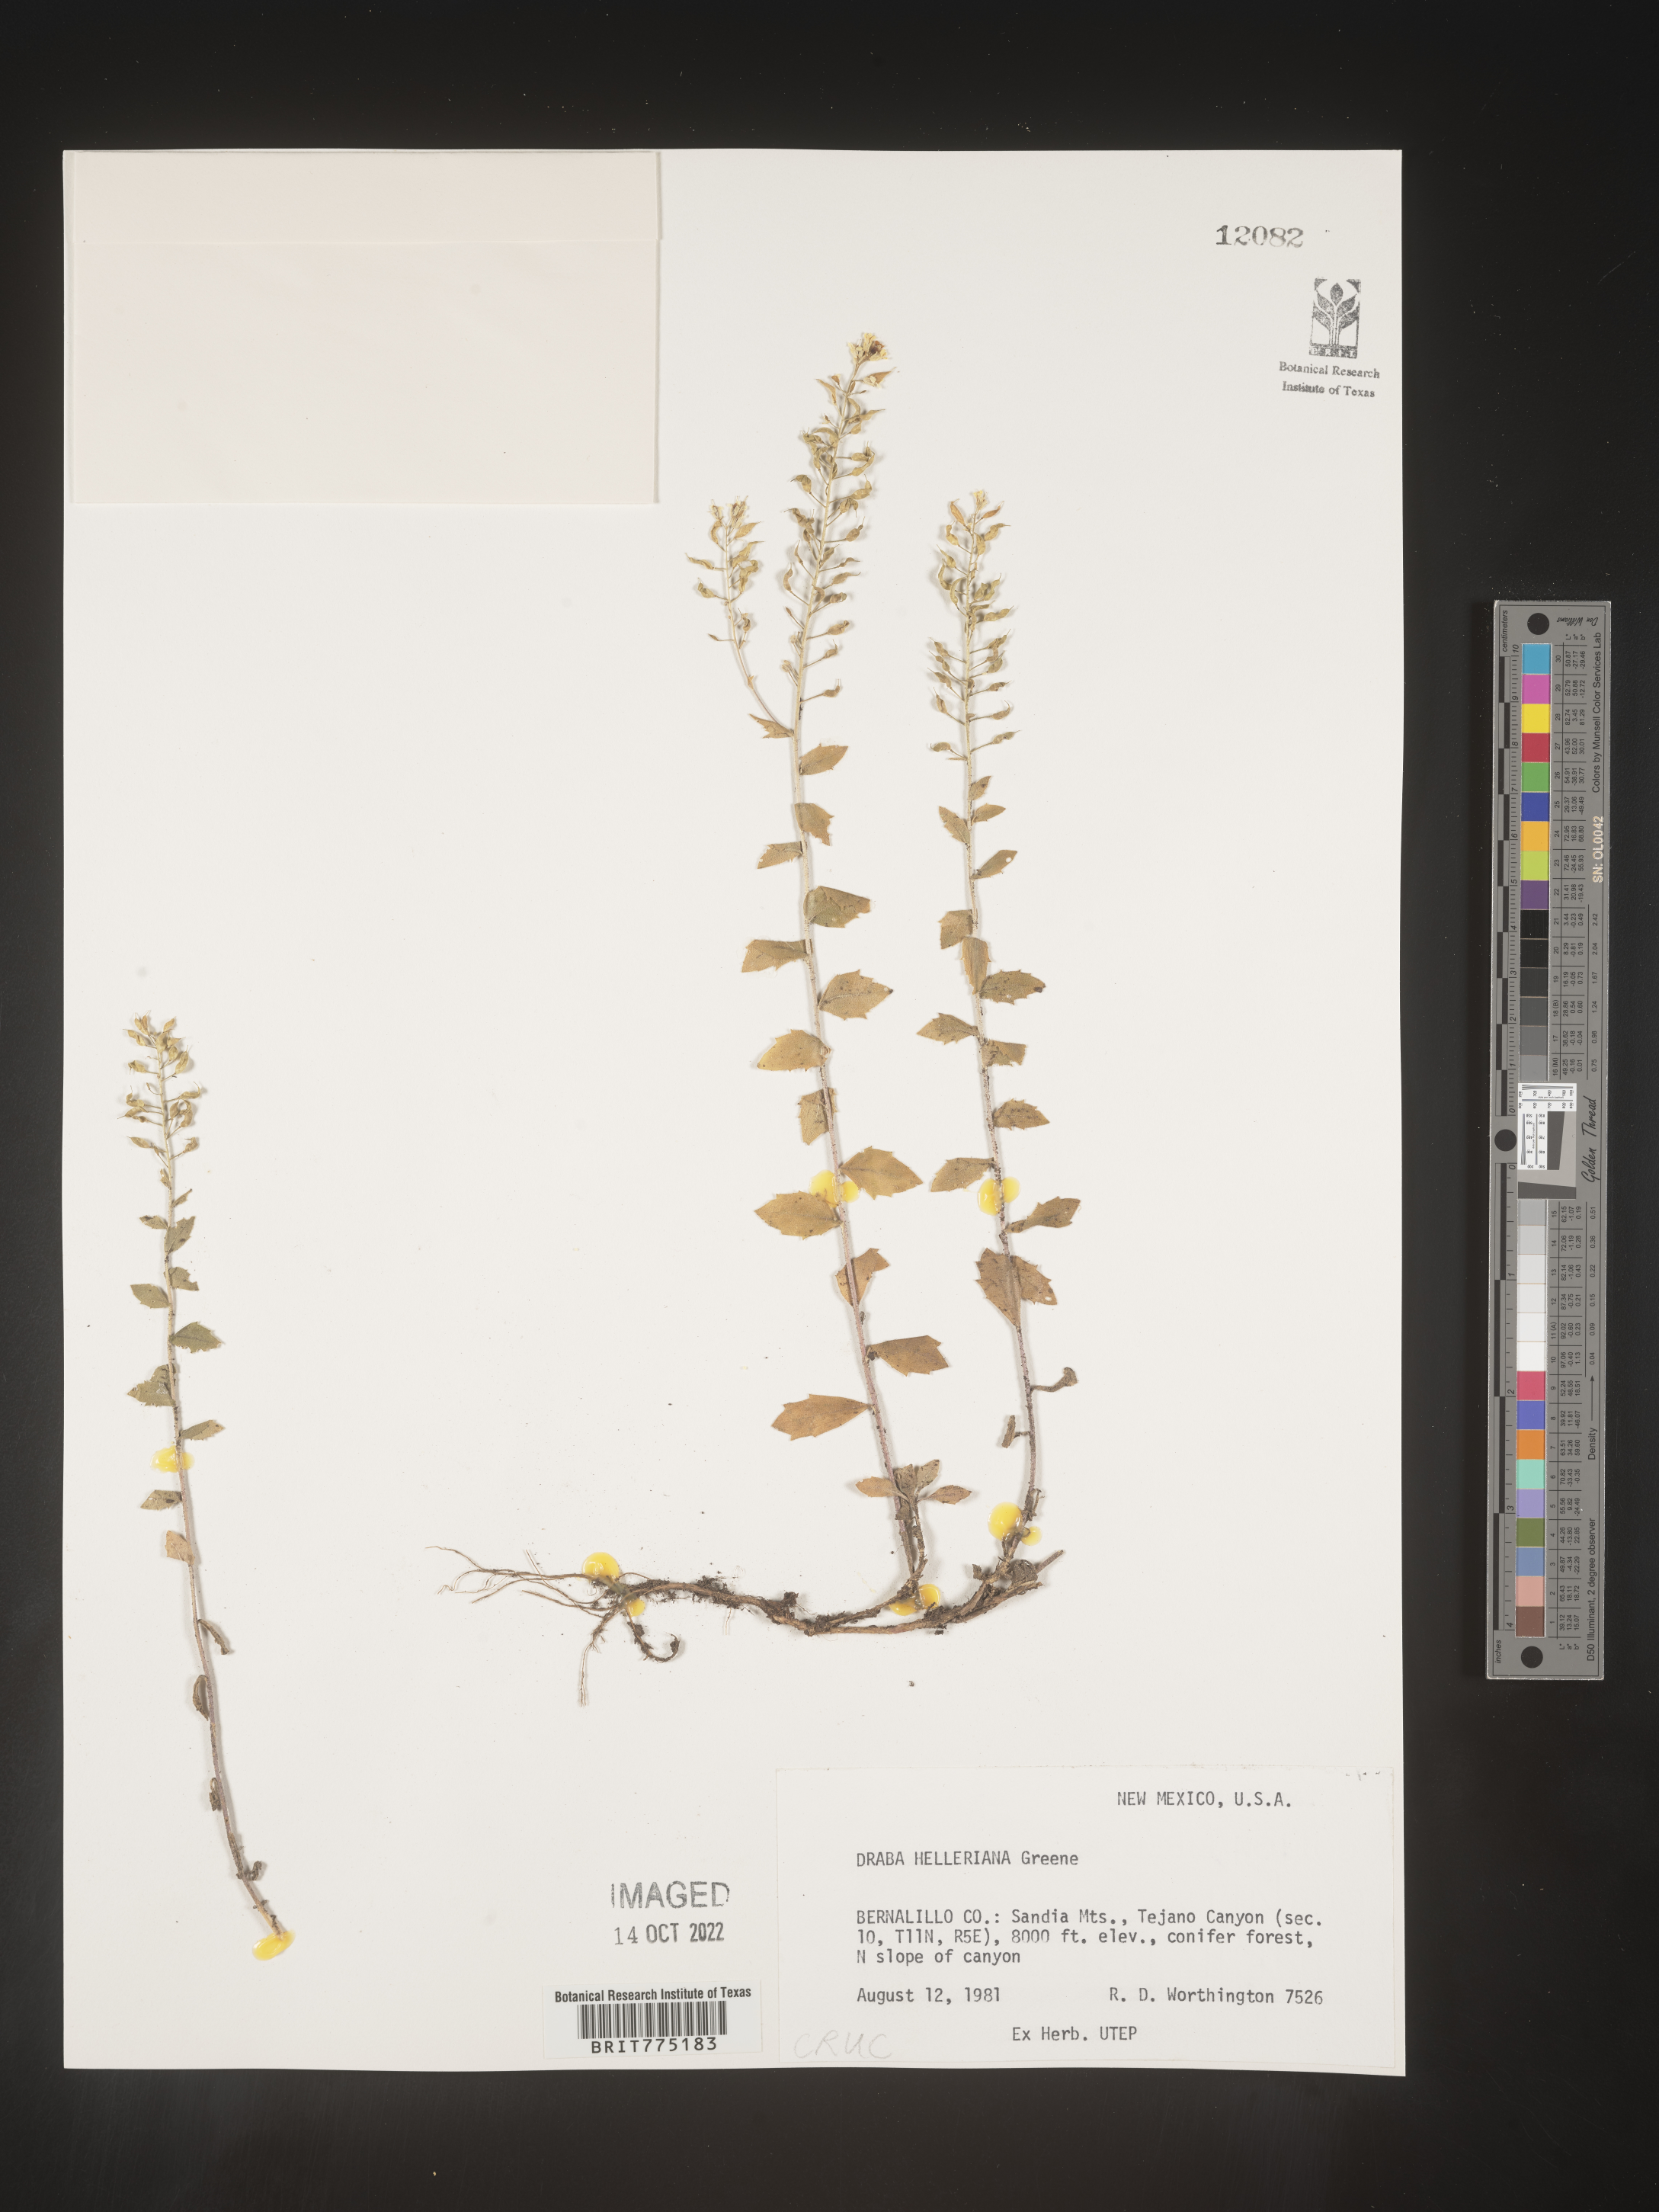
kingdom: Plantae
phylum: Tracheophyta
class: Magnoliopsida
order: Brassicales
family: Brassicaceae
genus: Draba
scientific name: Draba
